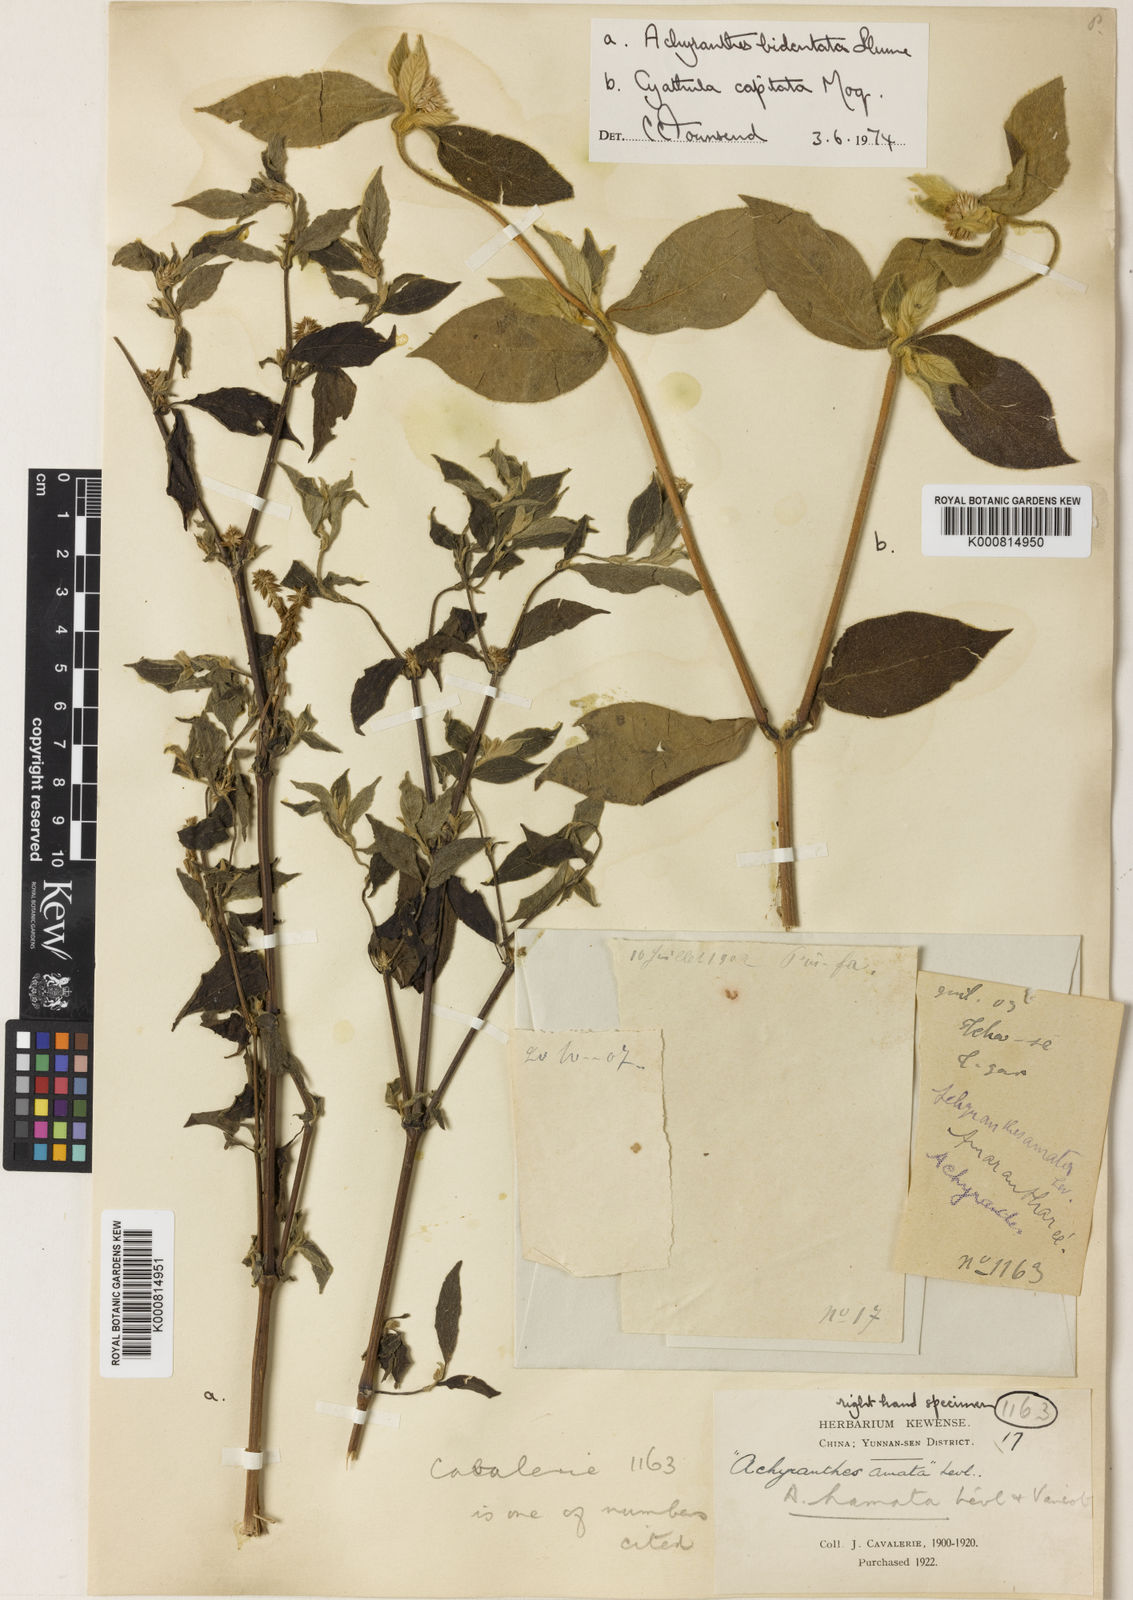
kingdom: Plantae
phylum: Tracheophyta
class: Magnoliopsida
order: Caryophyllales
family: Amaranthaceae
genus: Cyathula
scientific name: Cyathula capitata
